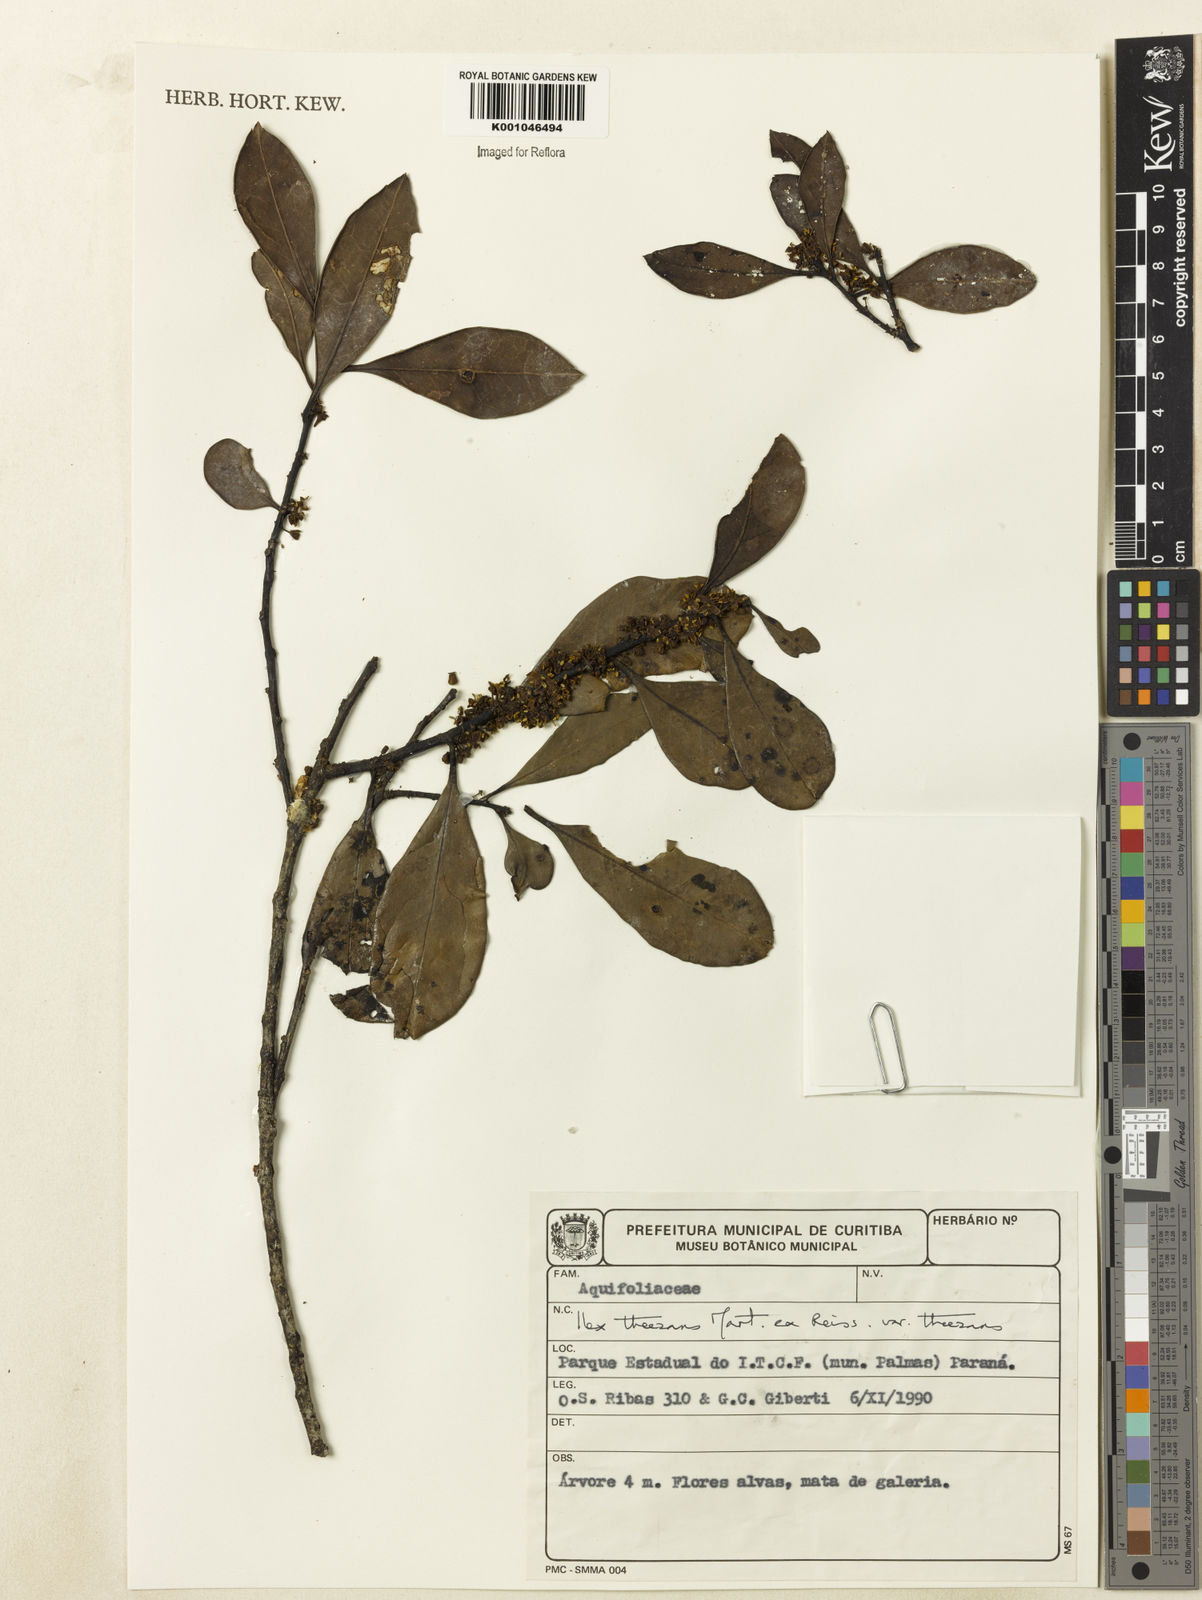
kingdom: Plantae
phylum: Tracheophyta
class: Magnoliopsida
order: Aquifoliales
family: Aquifoliaceae
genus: Ilex
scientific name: Ilex paraguariensis
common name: Paraguay tea
